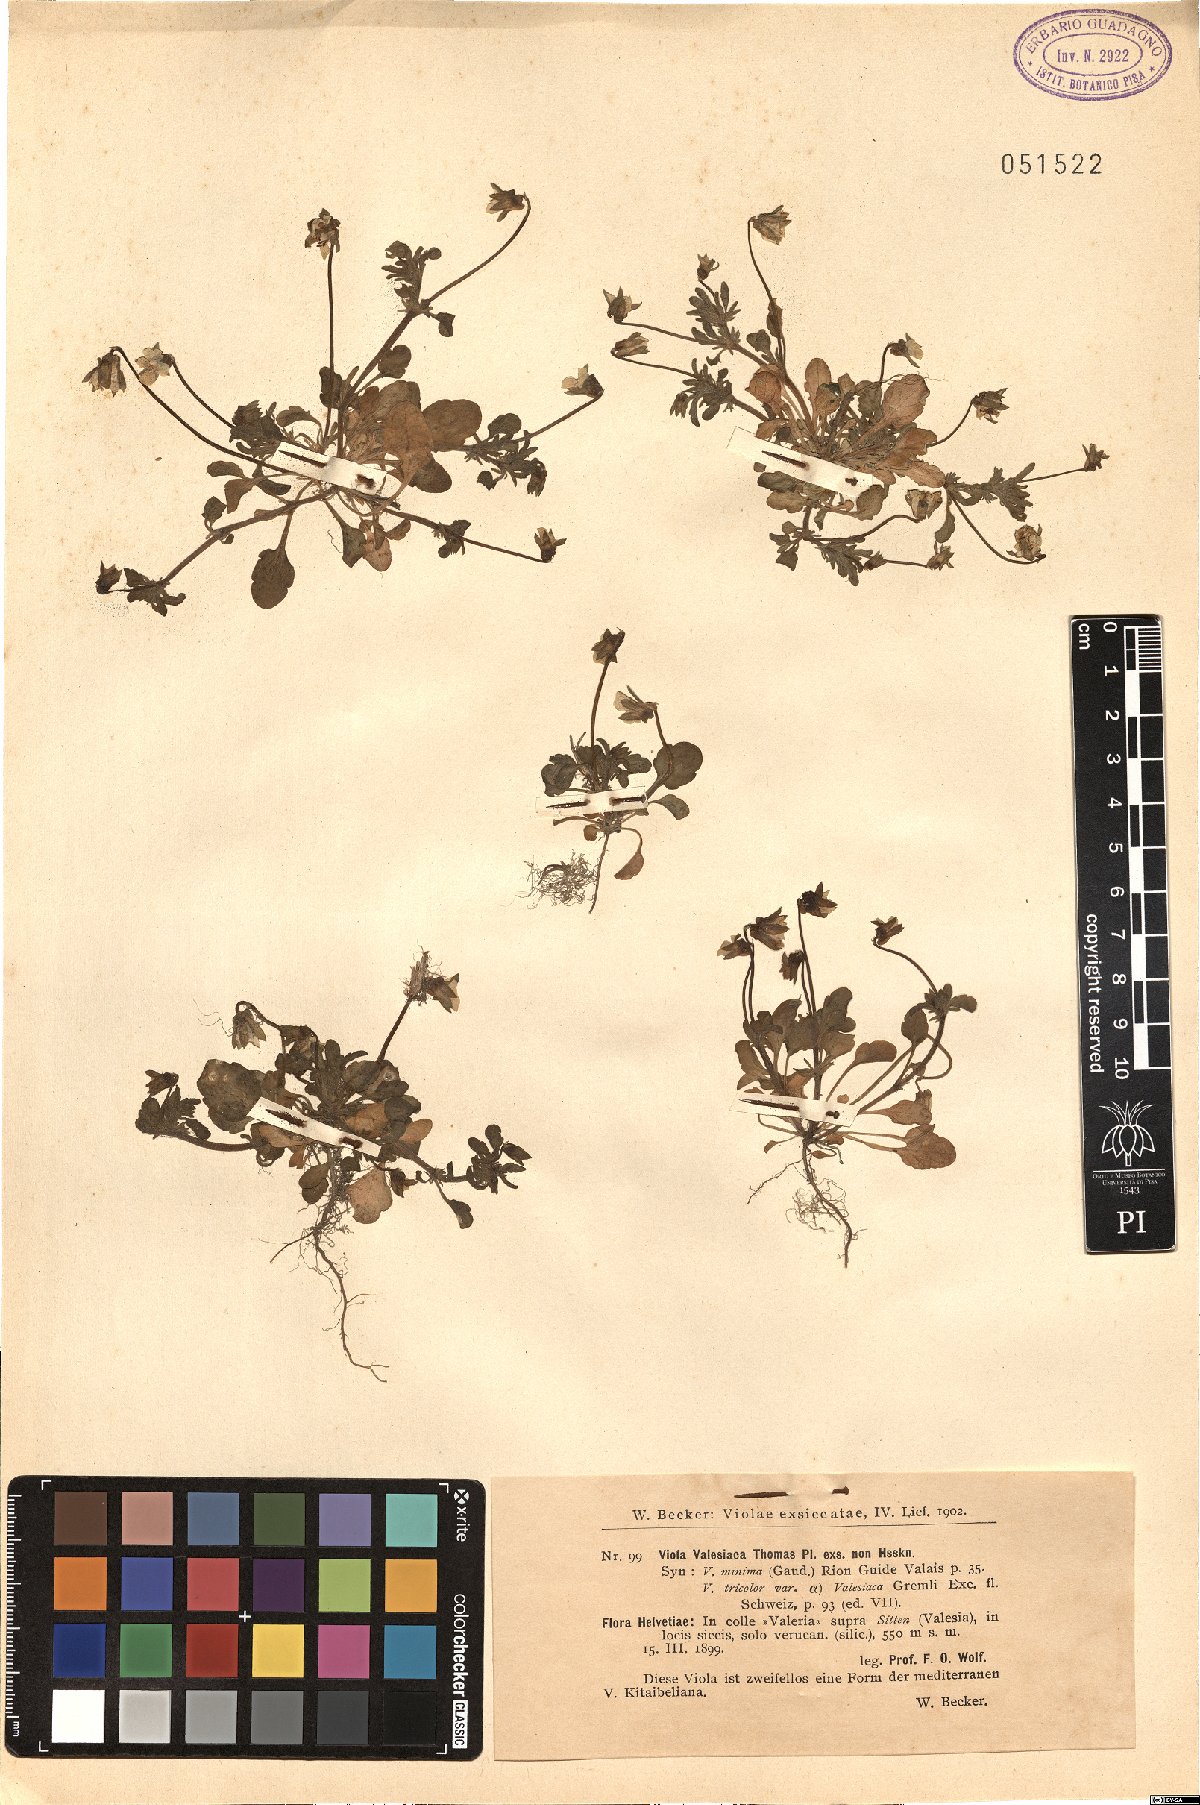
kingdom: Plantae
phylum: Tracheophyta
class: Magnoliopsida
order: Malpighiales
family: Violaceae
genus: Viola
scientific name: Viola kitaibeliana
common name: Dwarf pansy
